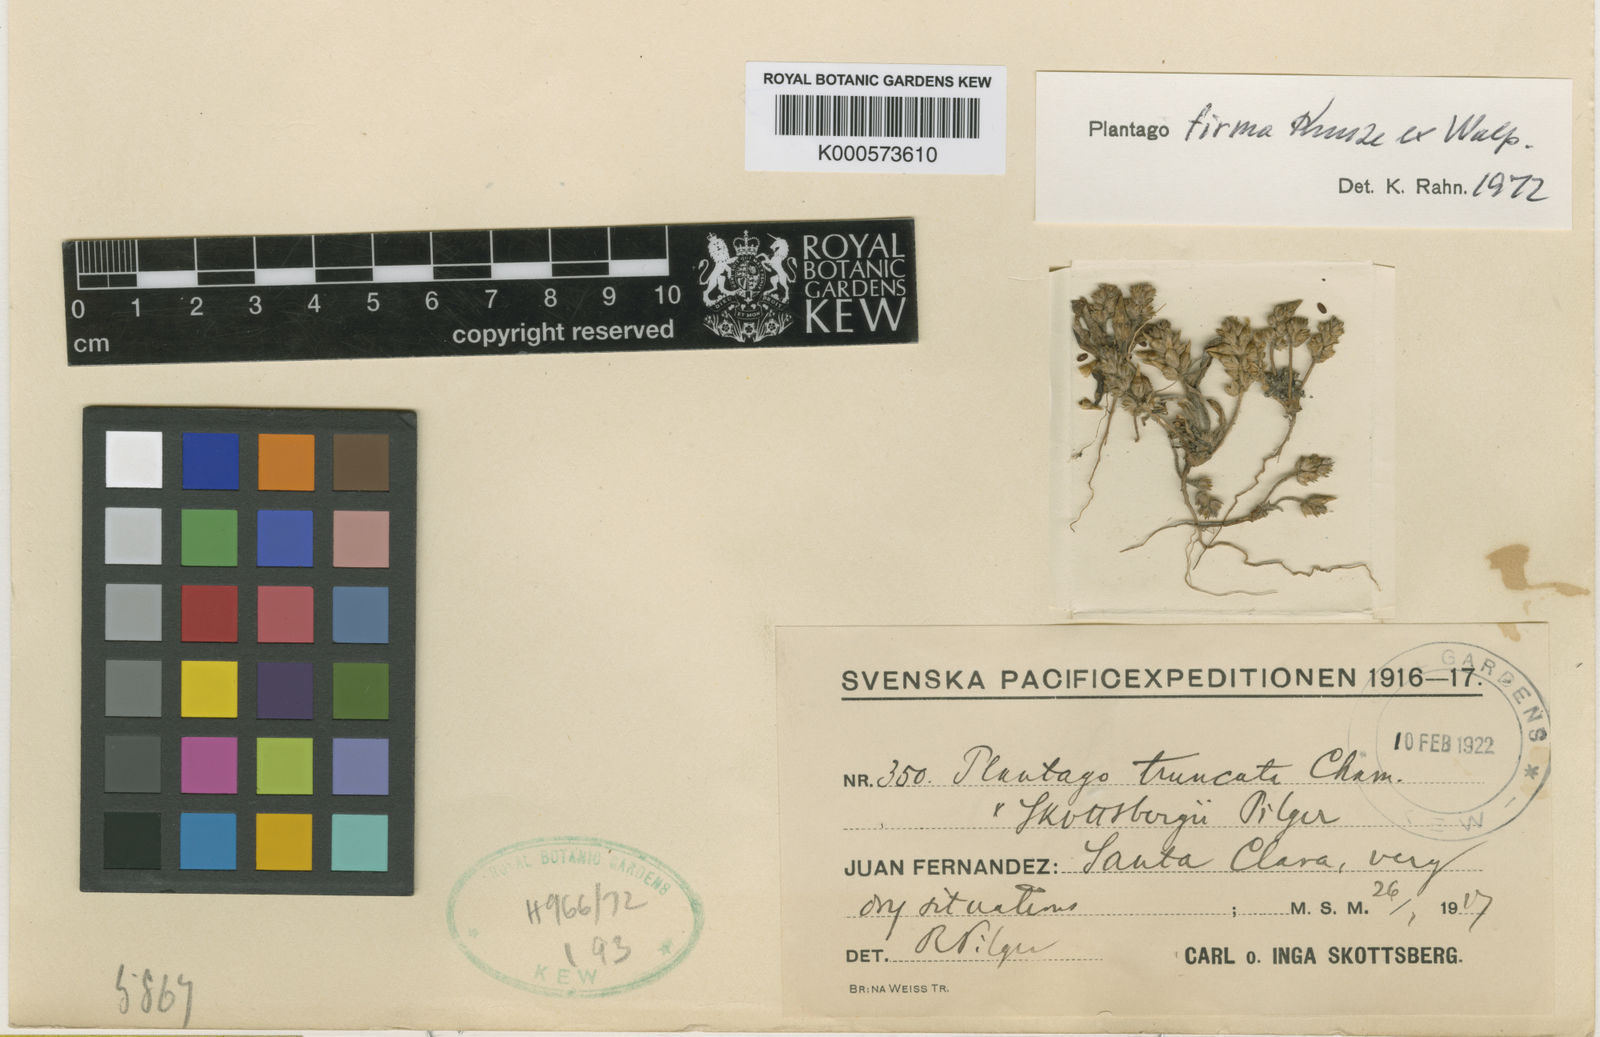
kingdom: Plantae
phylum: Tracheophyta
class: Magnoliopsida
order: Lamiales
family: Plantaginaceae
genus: Plantago
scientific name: Plantago firma
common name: Chilean plantain
